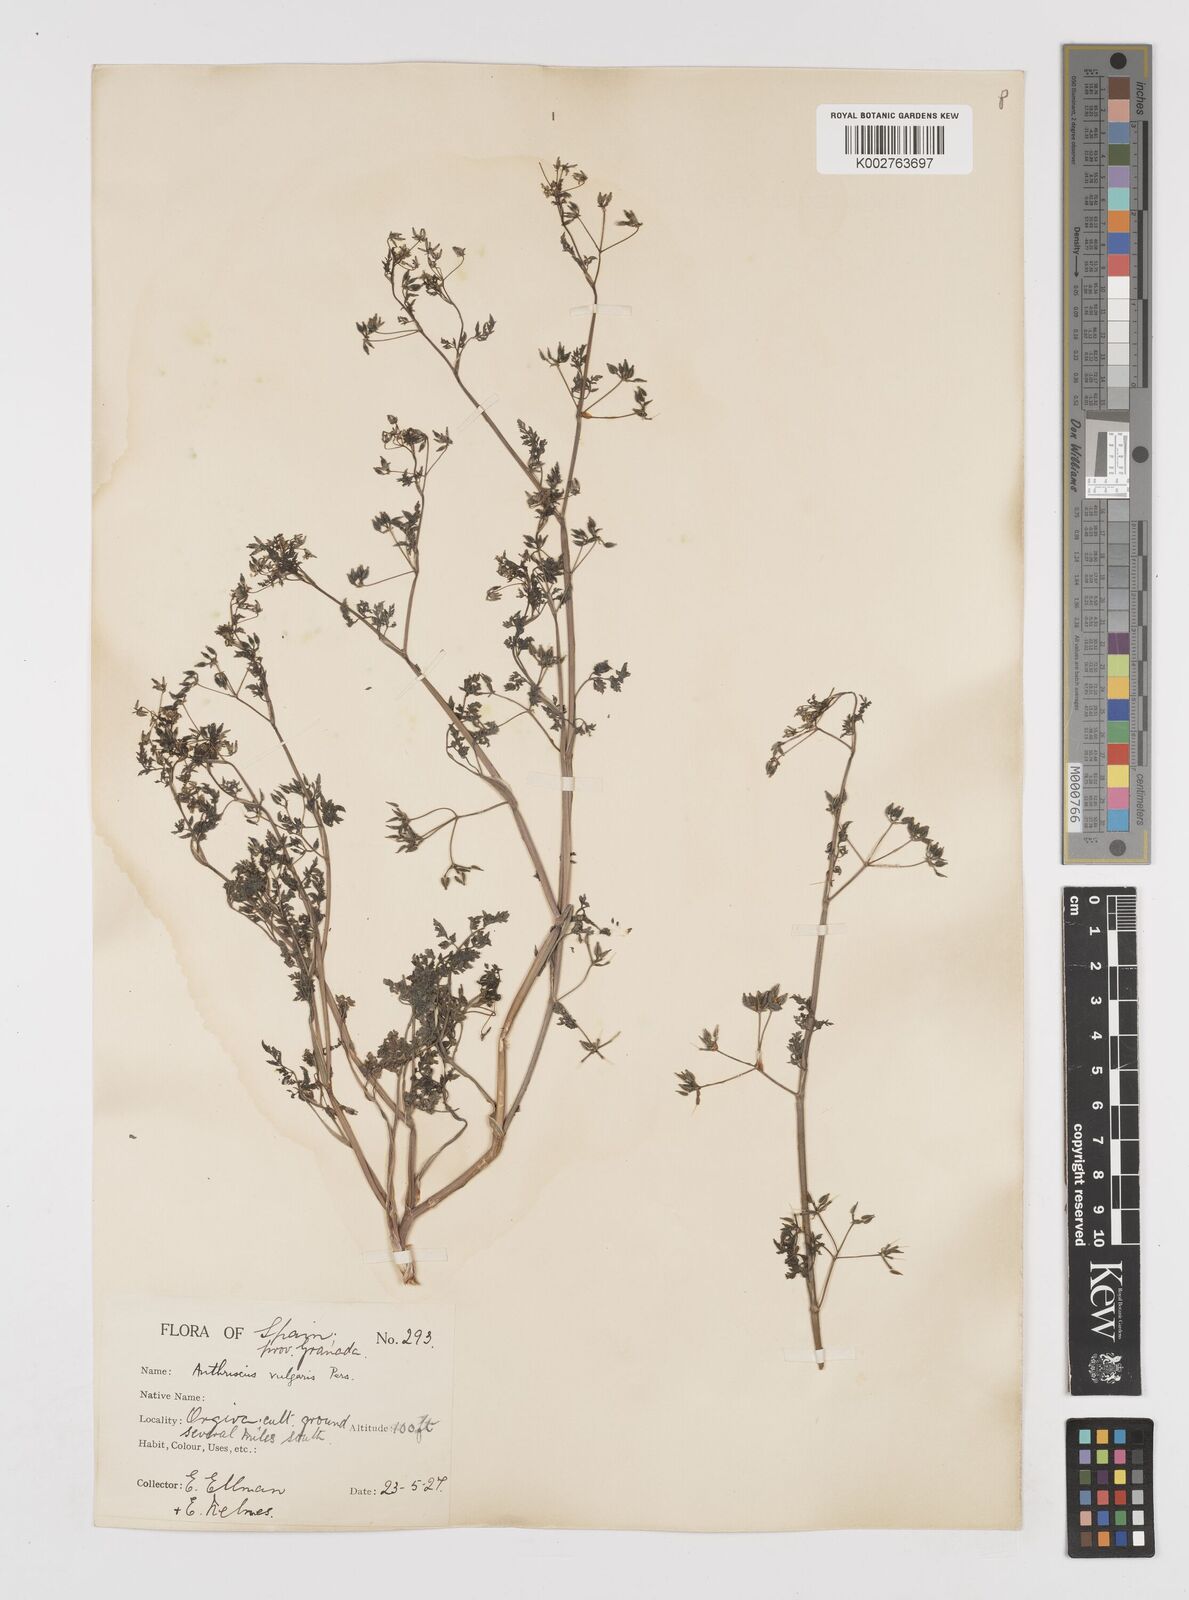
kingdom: Plantae
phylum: Tracheophyta
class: Magnoliopsida
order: Apiales
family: Apiaceae
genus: Anthriscus
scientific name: Anthriscus caucalis
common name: Bur chervil
